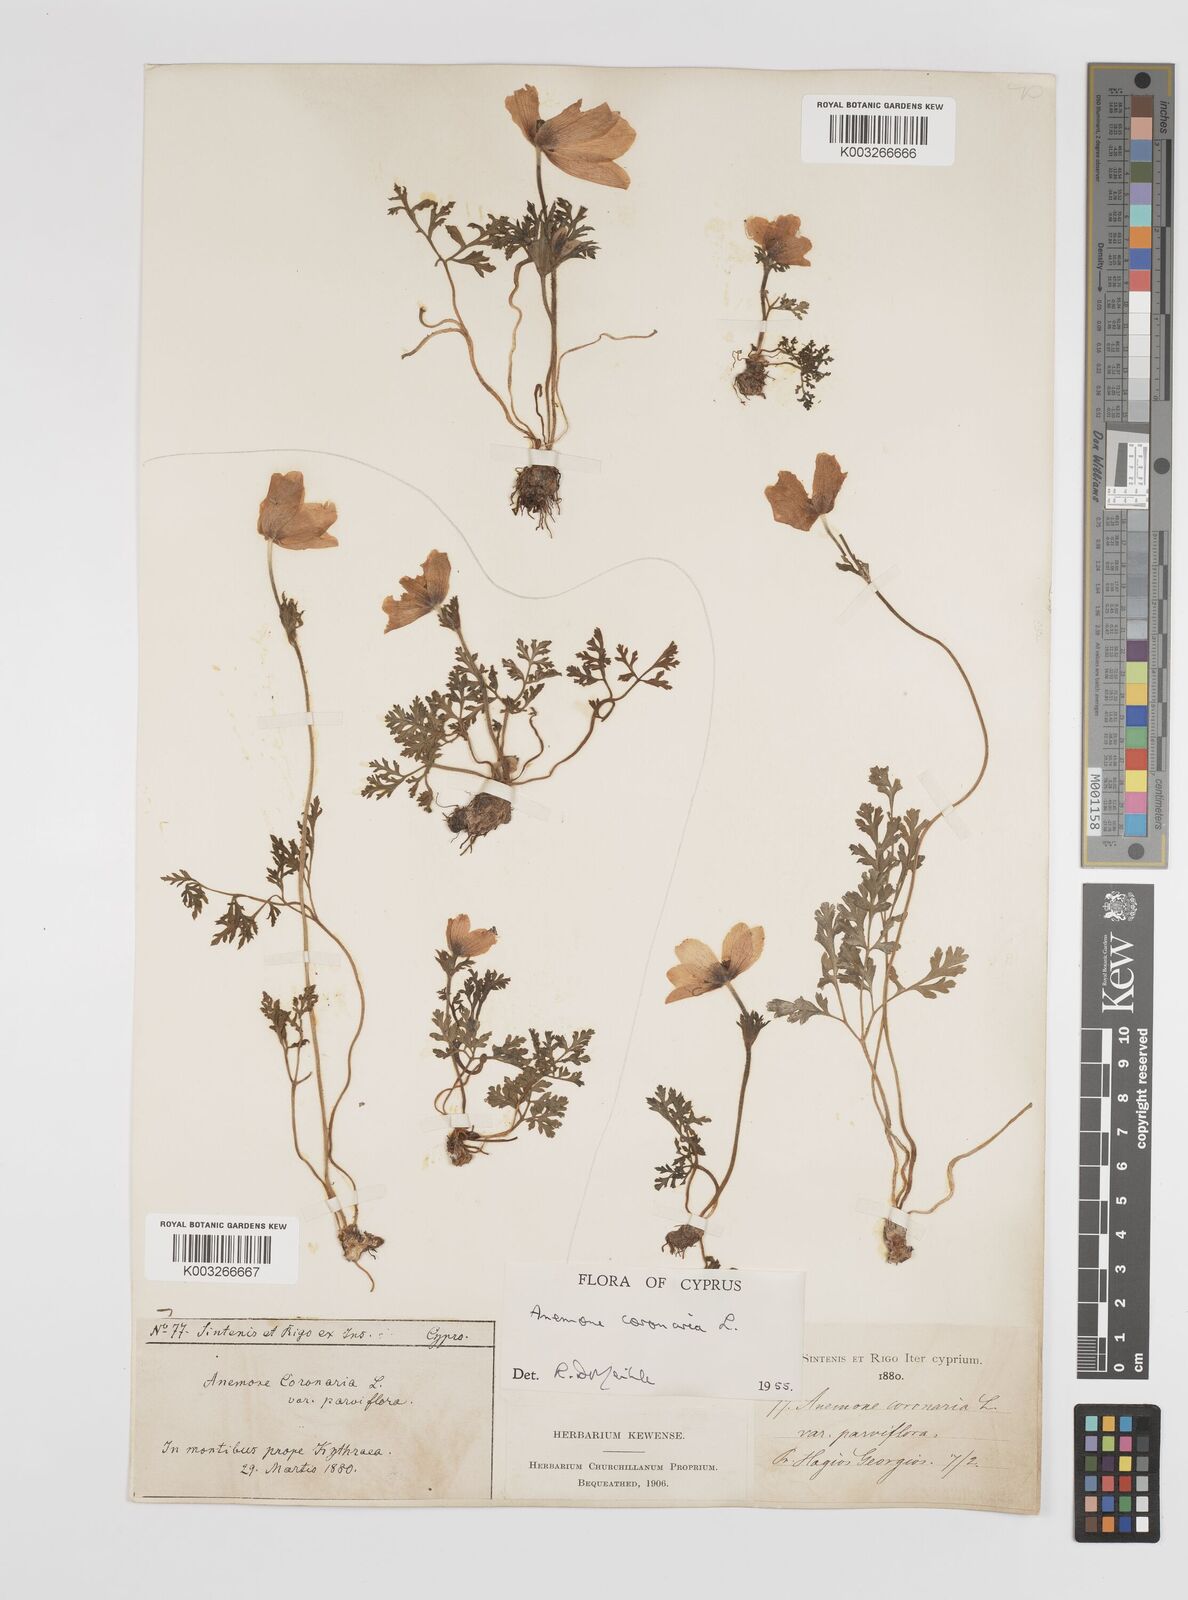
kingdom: Plantae
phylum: Tracheophyta
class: Magnoliopsida
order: Ranunculales
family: Ranunculaceae
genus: Anemone
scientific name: Anemone coronaria
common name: Poppy anemone
